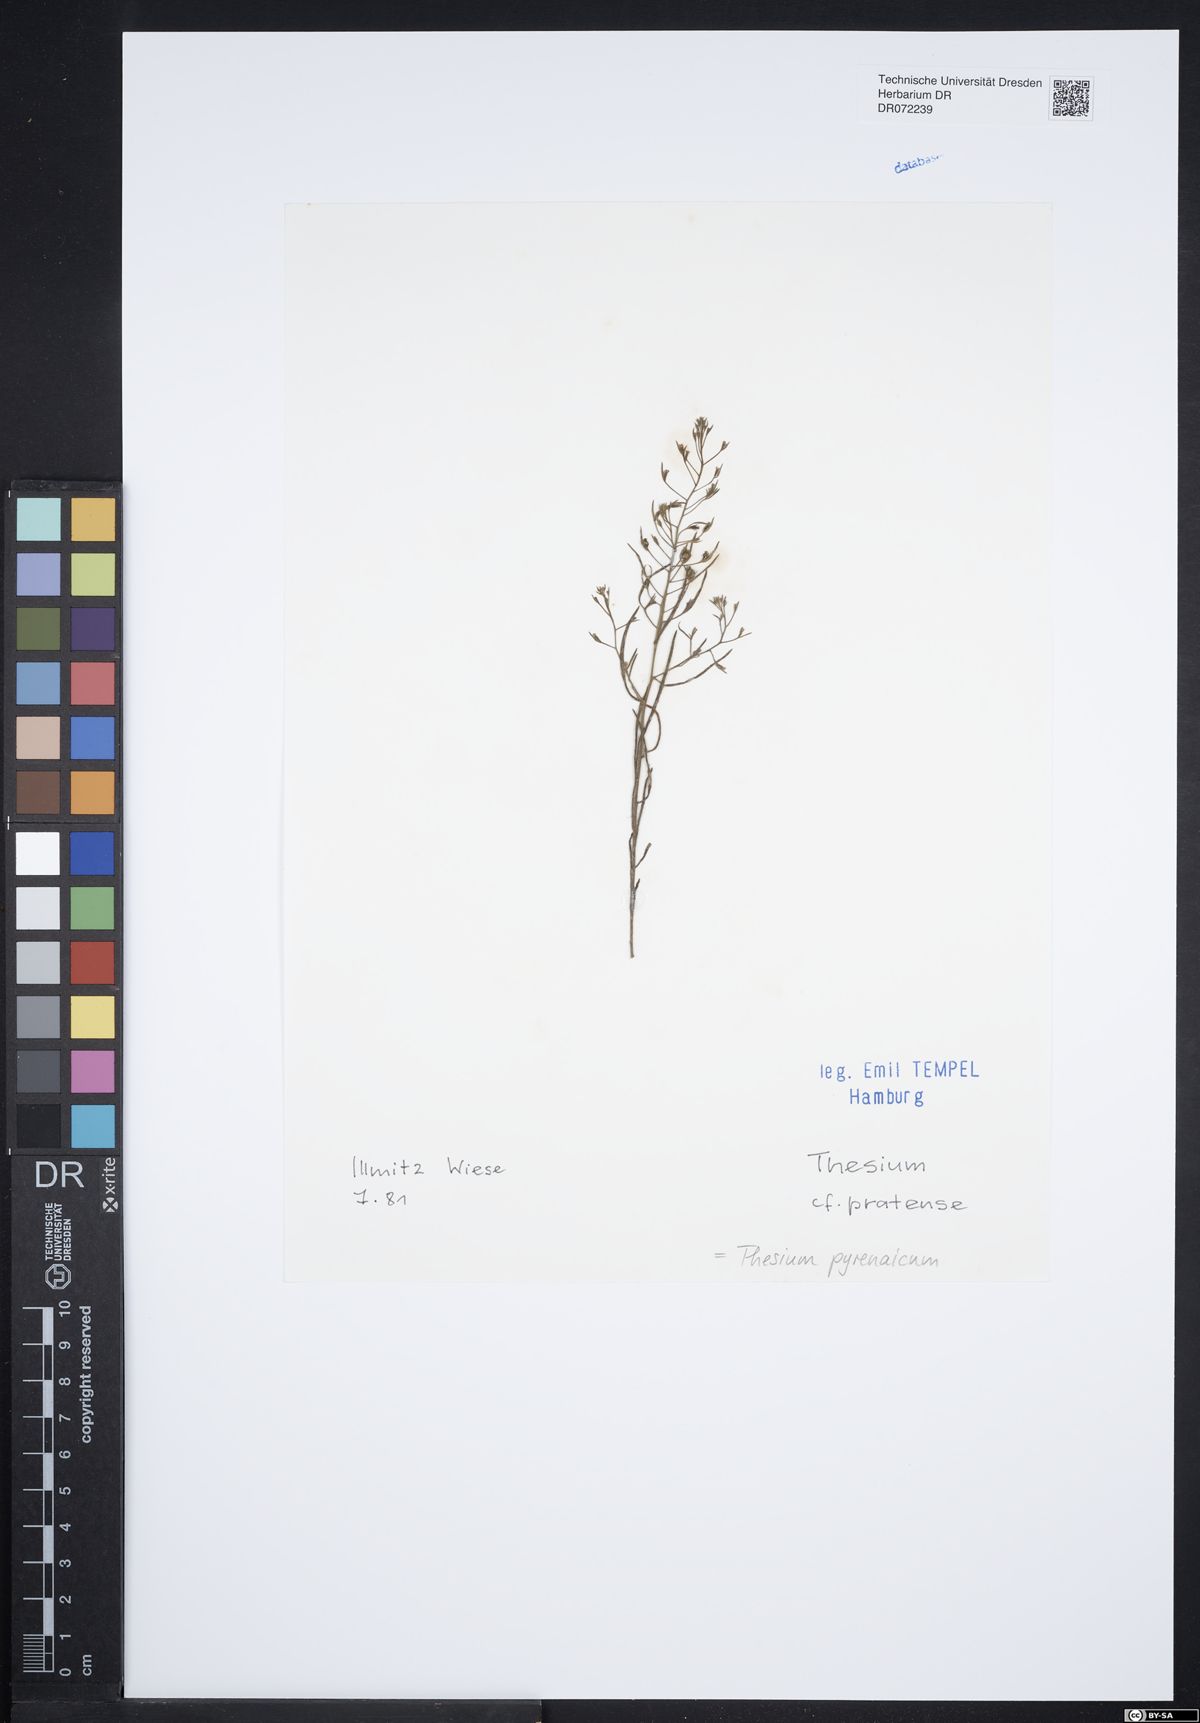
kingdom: Plantae
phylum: Tracheophyta
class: Magnoliopsida
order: Santalales
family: Thesiaceae
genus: Thesium
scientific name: Thesium pyrenaicum
